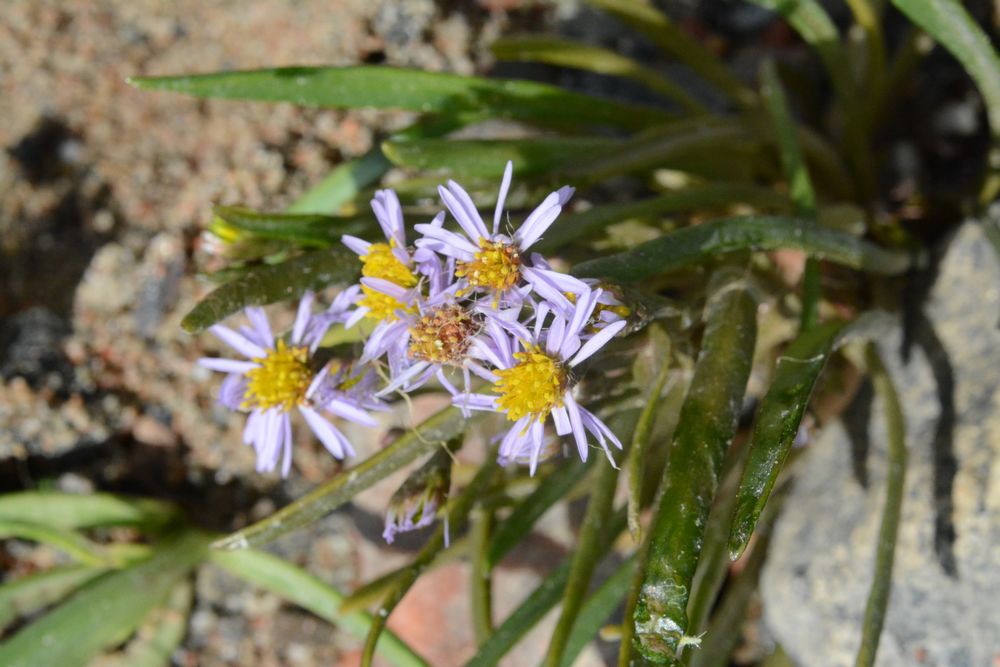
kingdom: Plantae
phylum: Tracheophyta
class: Magnoliopsida
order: Asterales
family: Asteraceae
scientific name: Asteraceae
